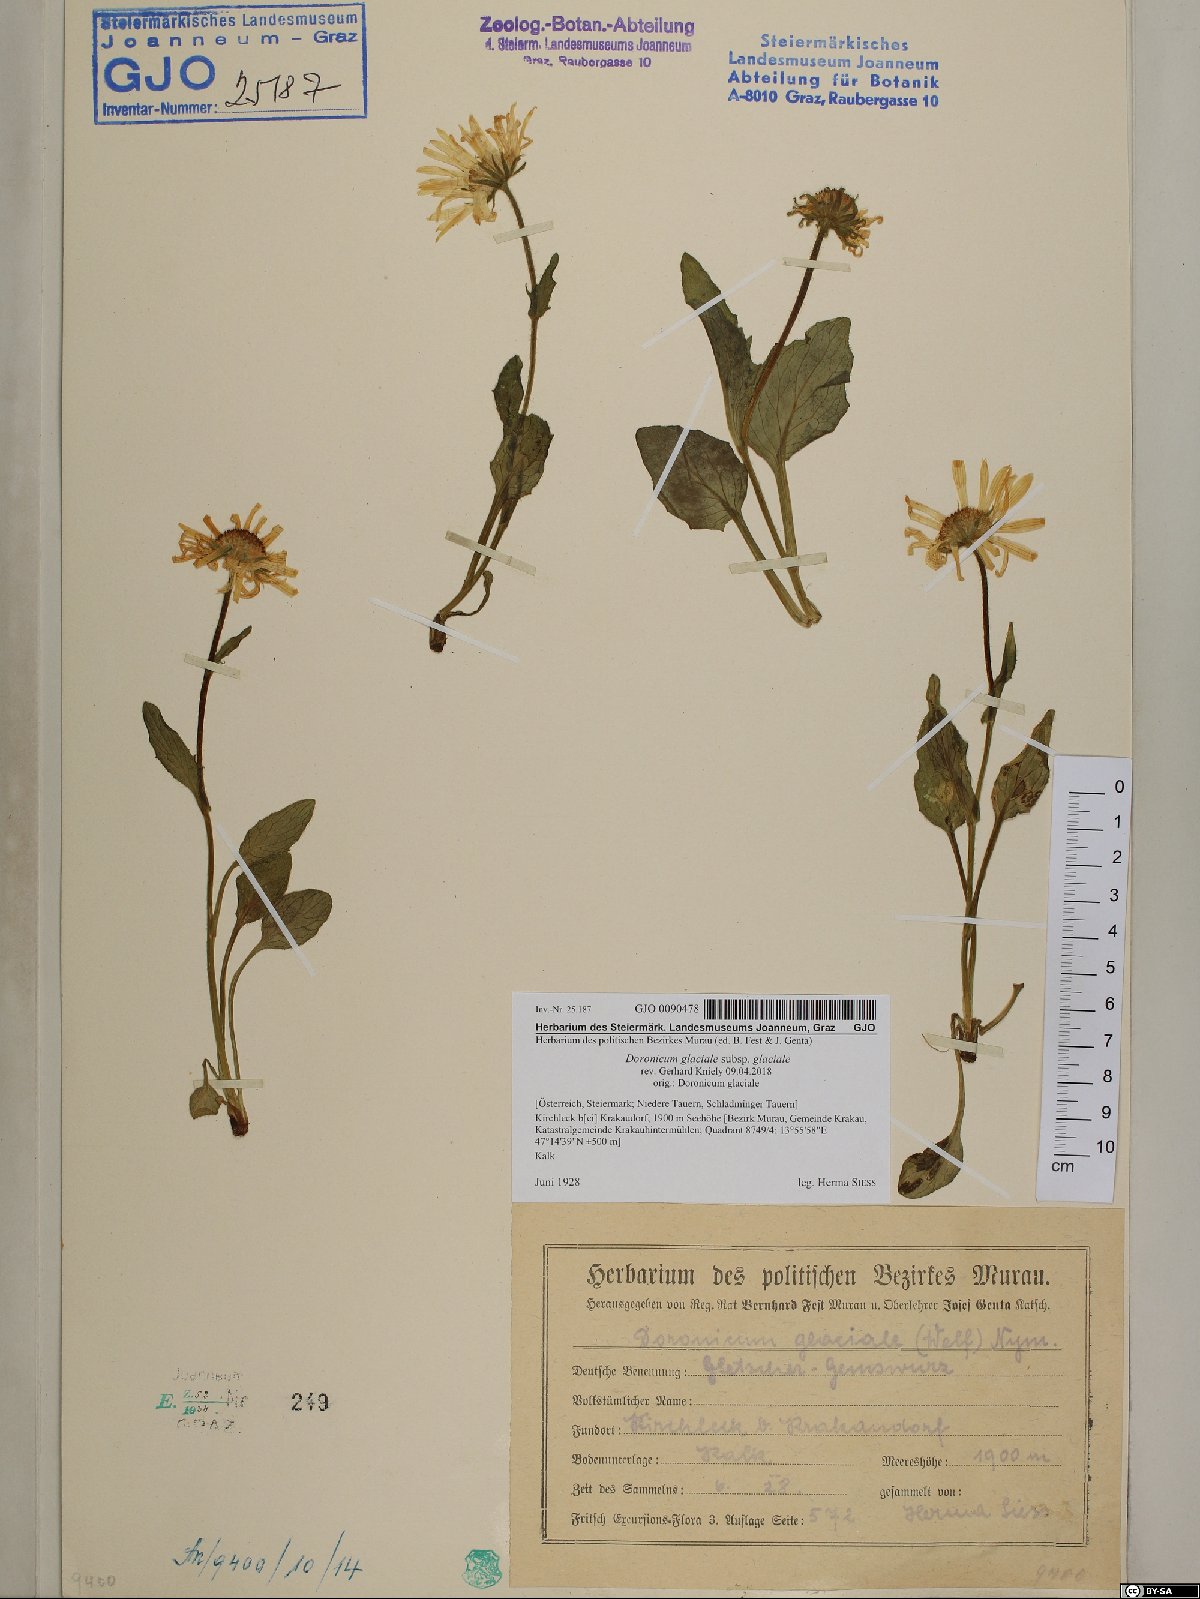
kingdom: Plantae
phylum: Tracheophyta
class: Magnoliopsida
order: Asterales
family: Asteraceae
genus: Doronicum
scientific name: Doronicum glaciale
